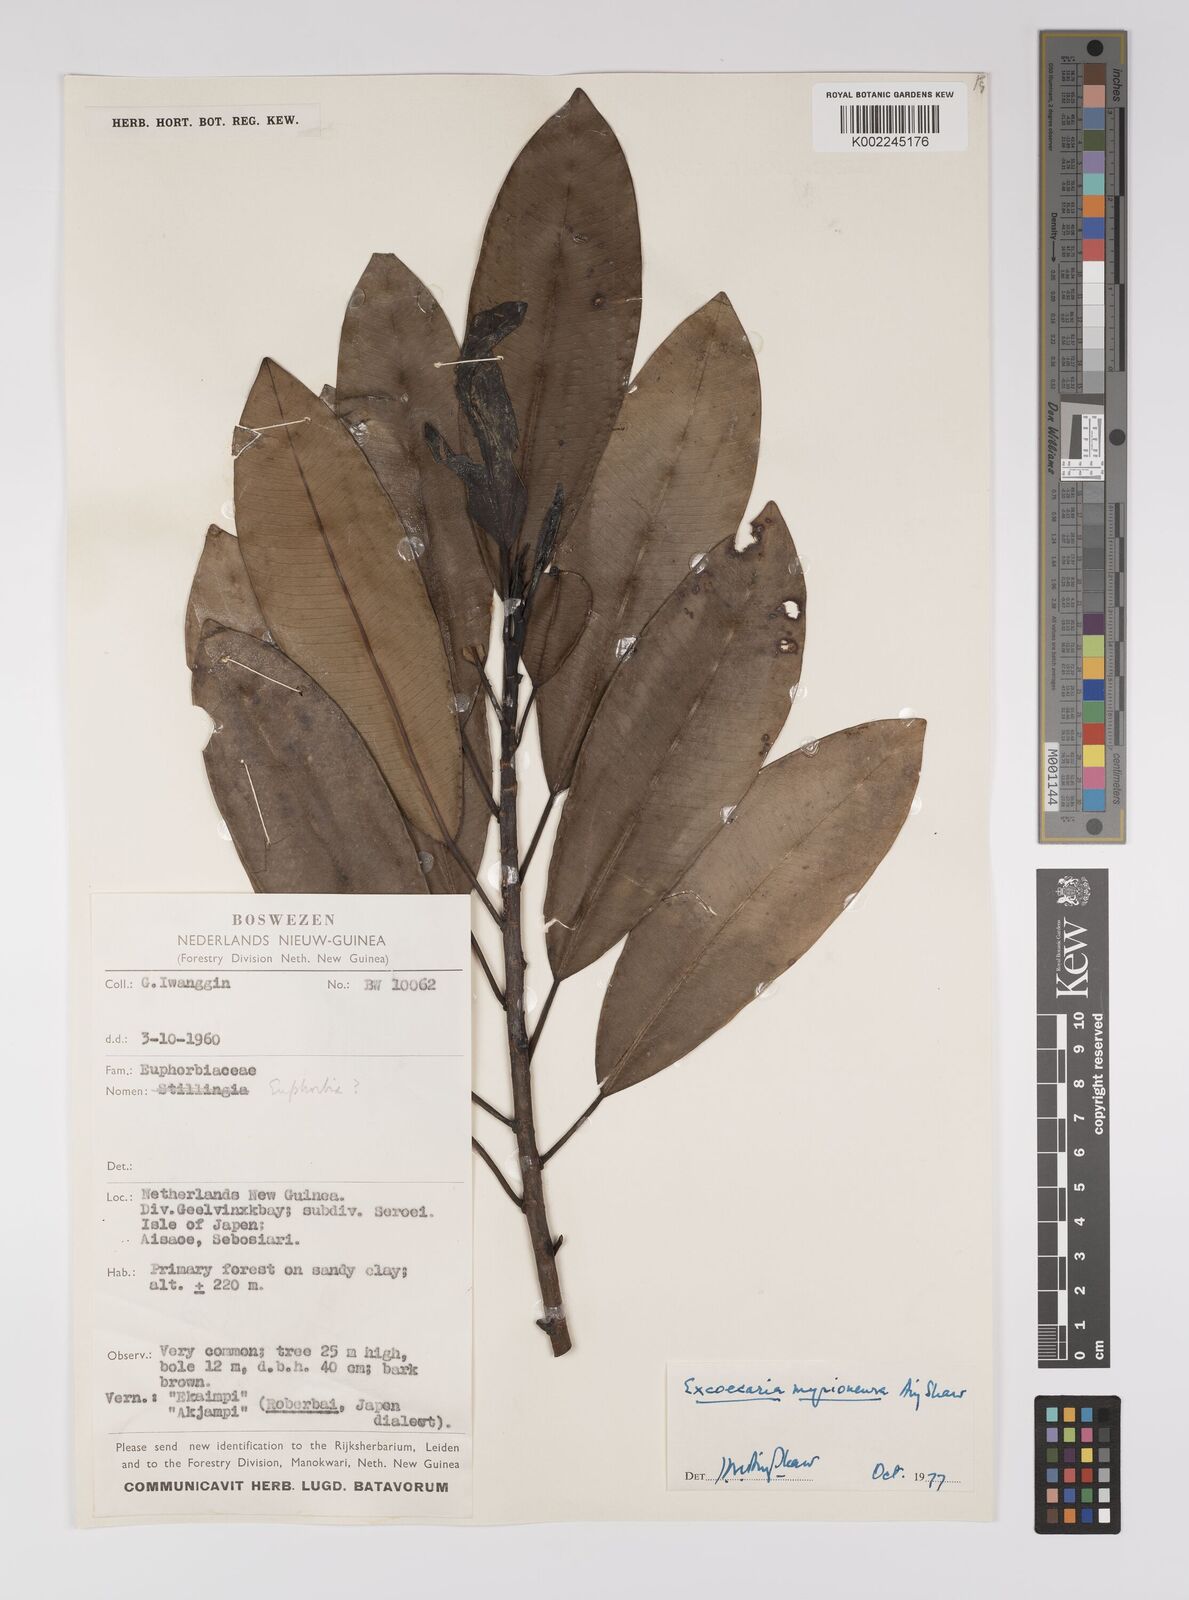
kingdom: Plantae
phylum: Tracheophyta
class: Magnoliopsida
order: Malpighiales
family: Euphorbiaceae
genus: Excoecaria
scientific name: Excoecaria myrioneura
